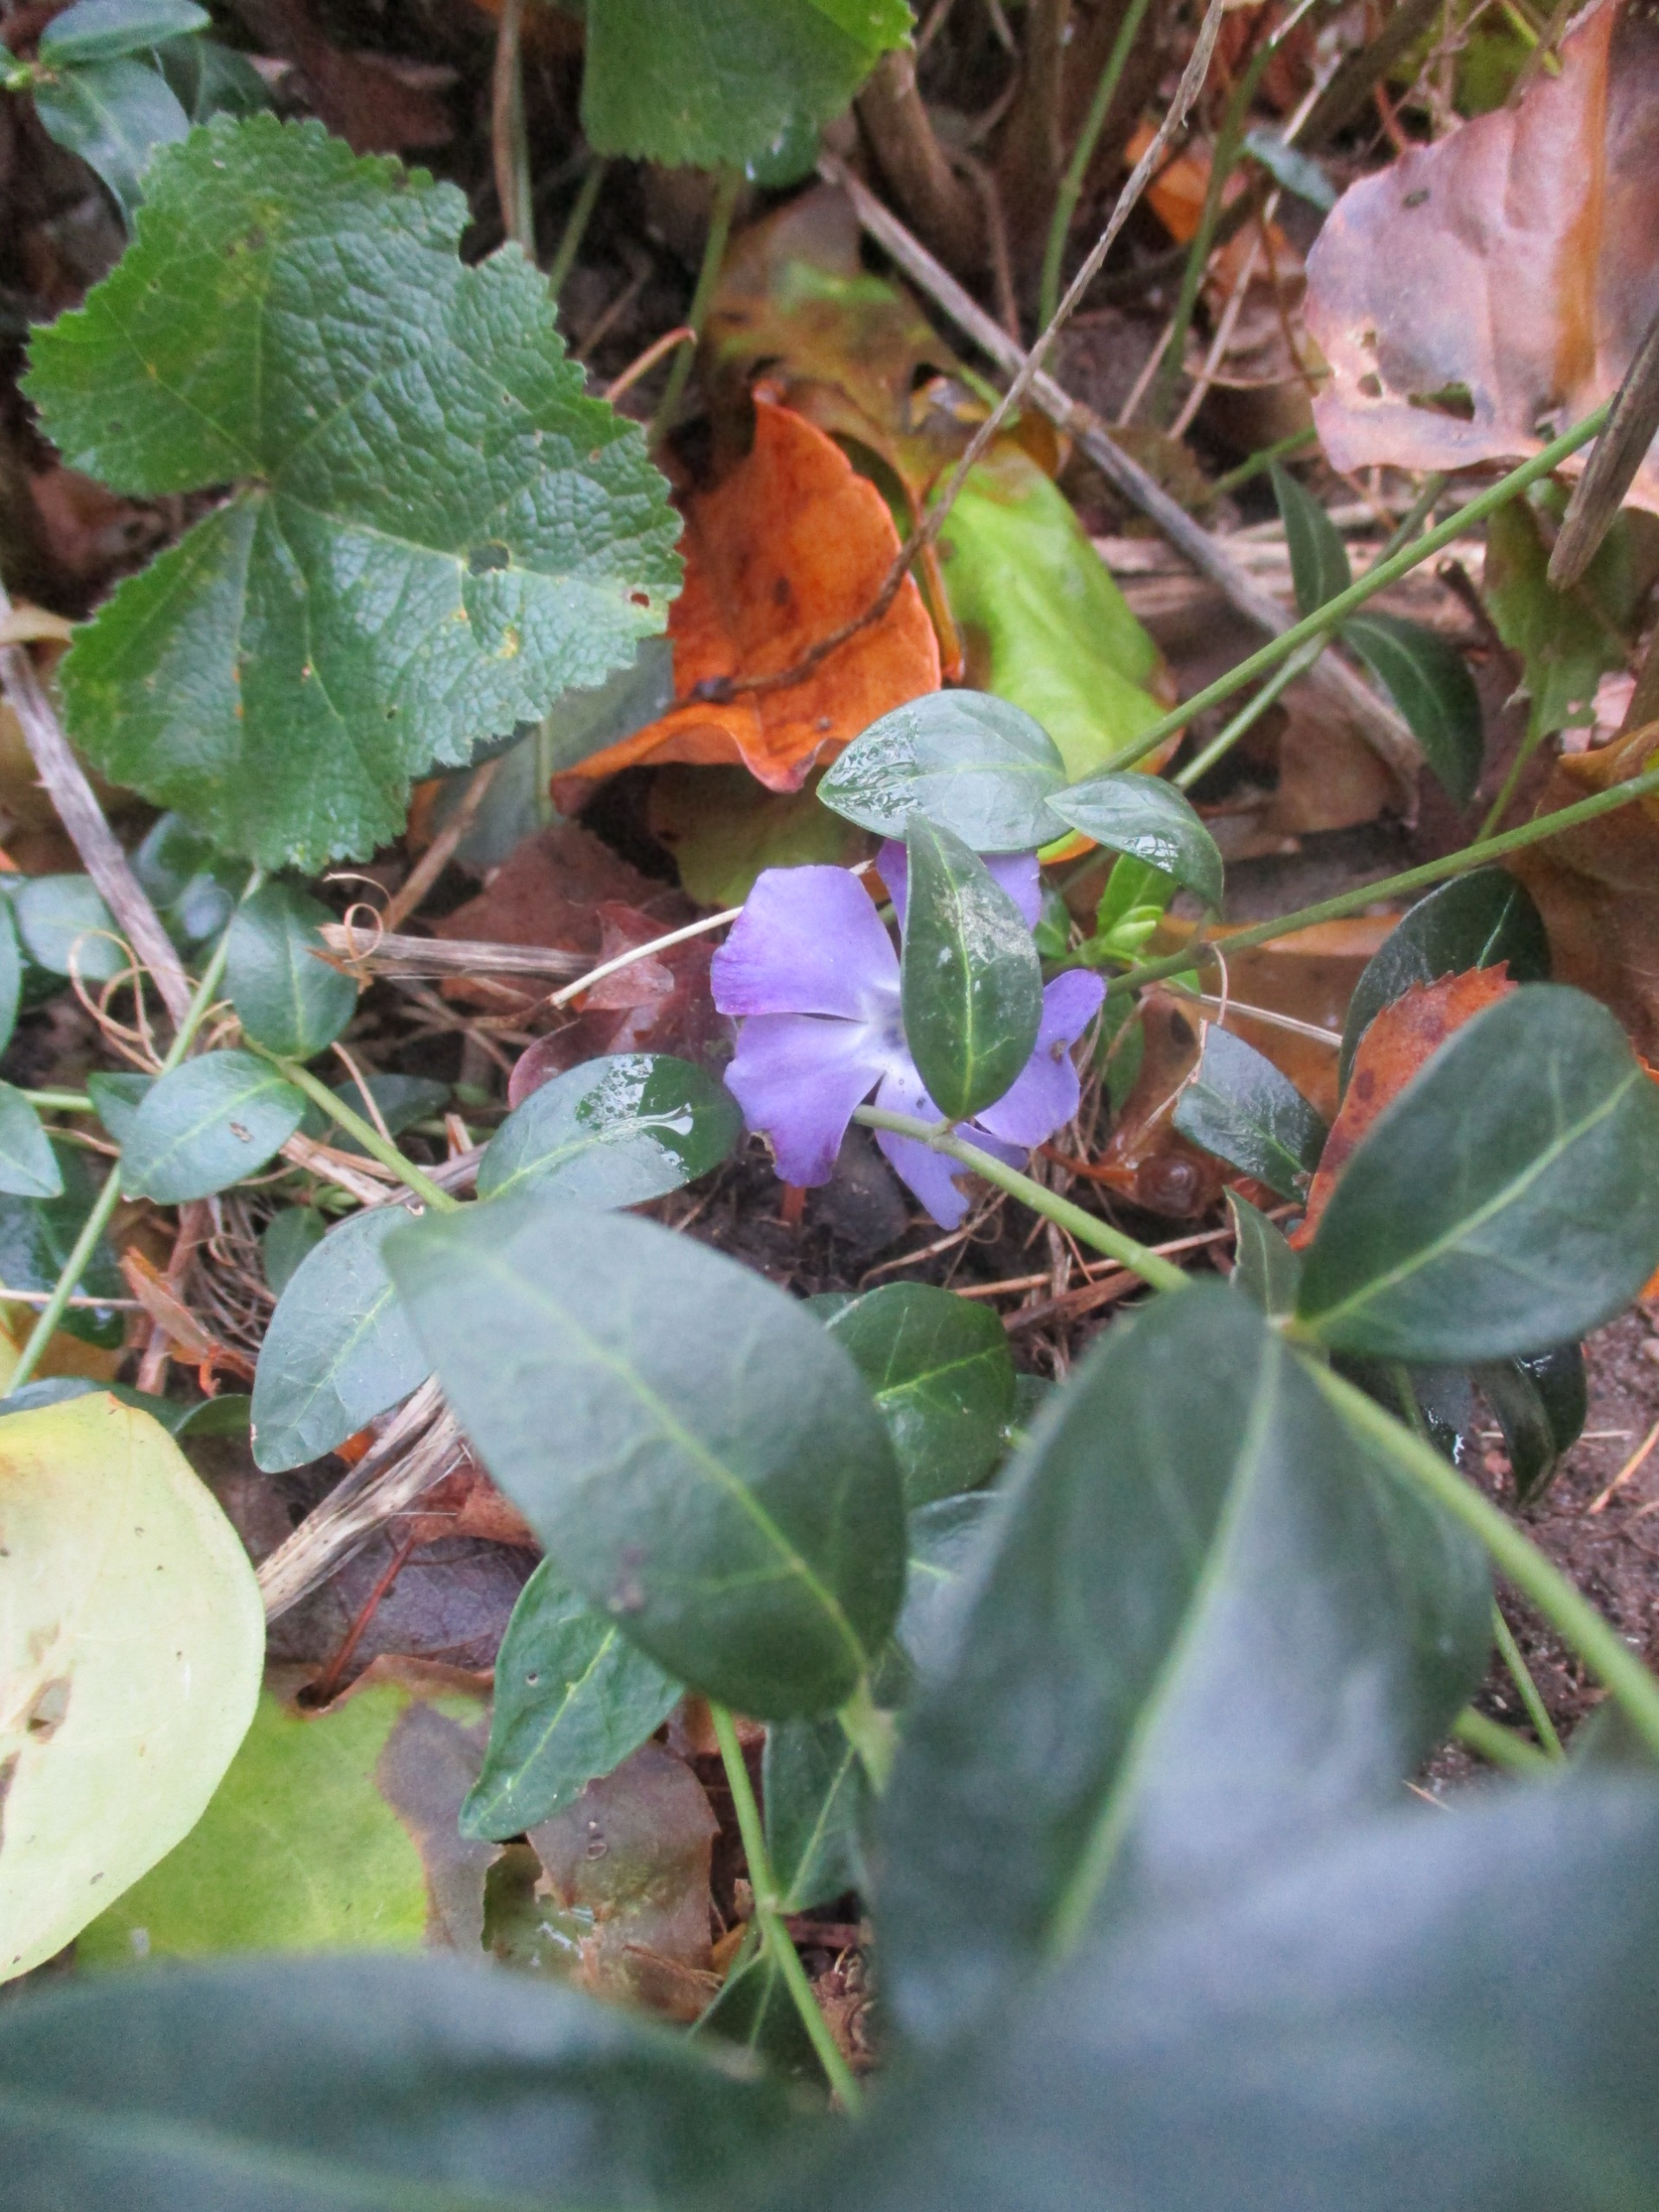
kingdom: Plantae
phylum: Tracheophyta
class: Magnoliopsida
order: Gentianales
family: Apocynaceae
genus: Vinca
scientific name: Vinca minor
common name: Liden singrøn
